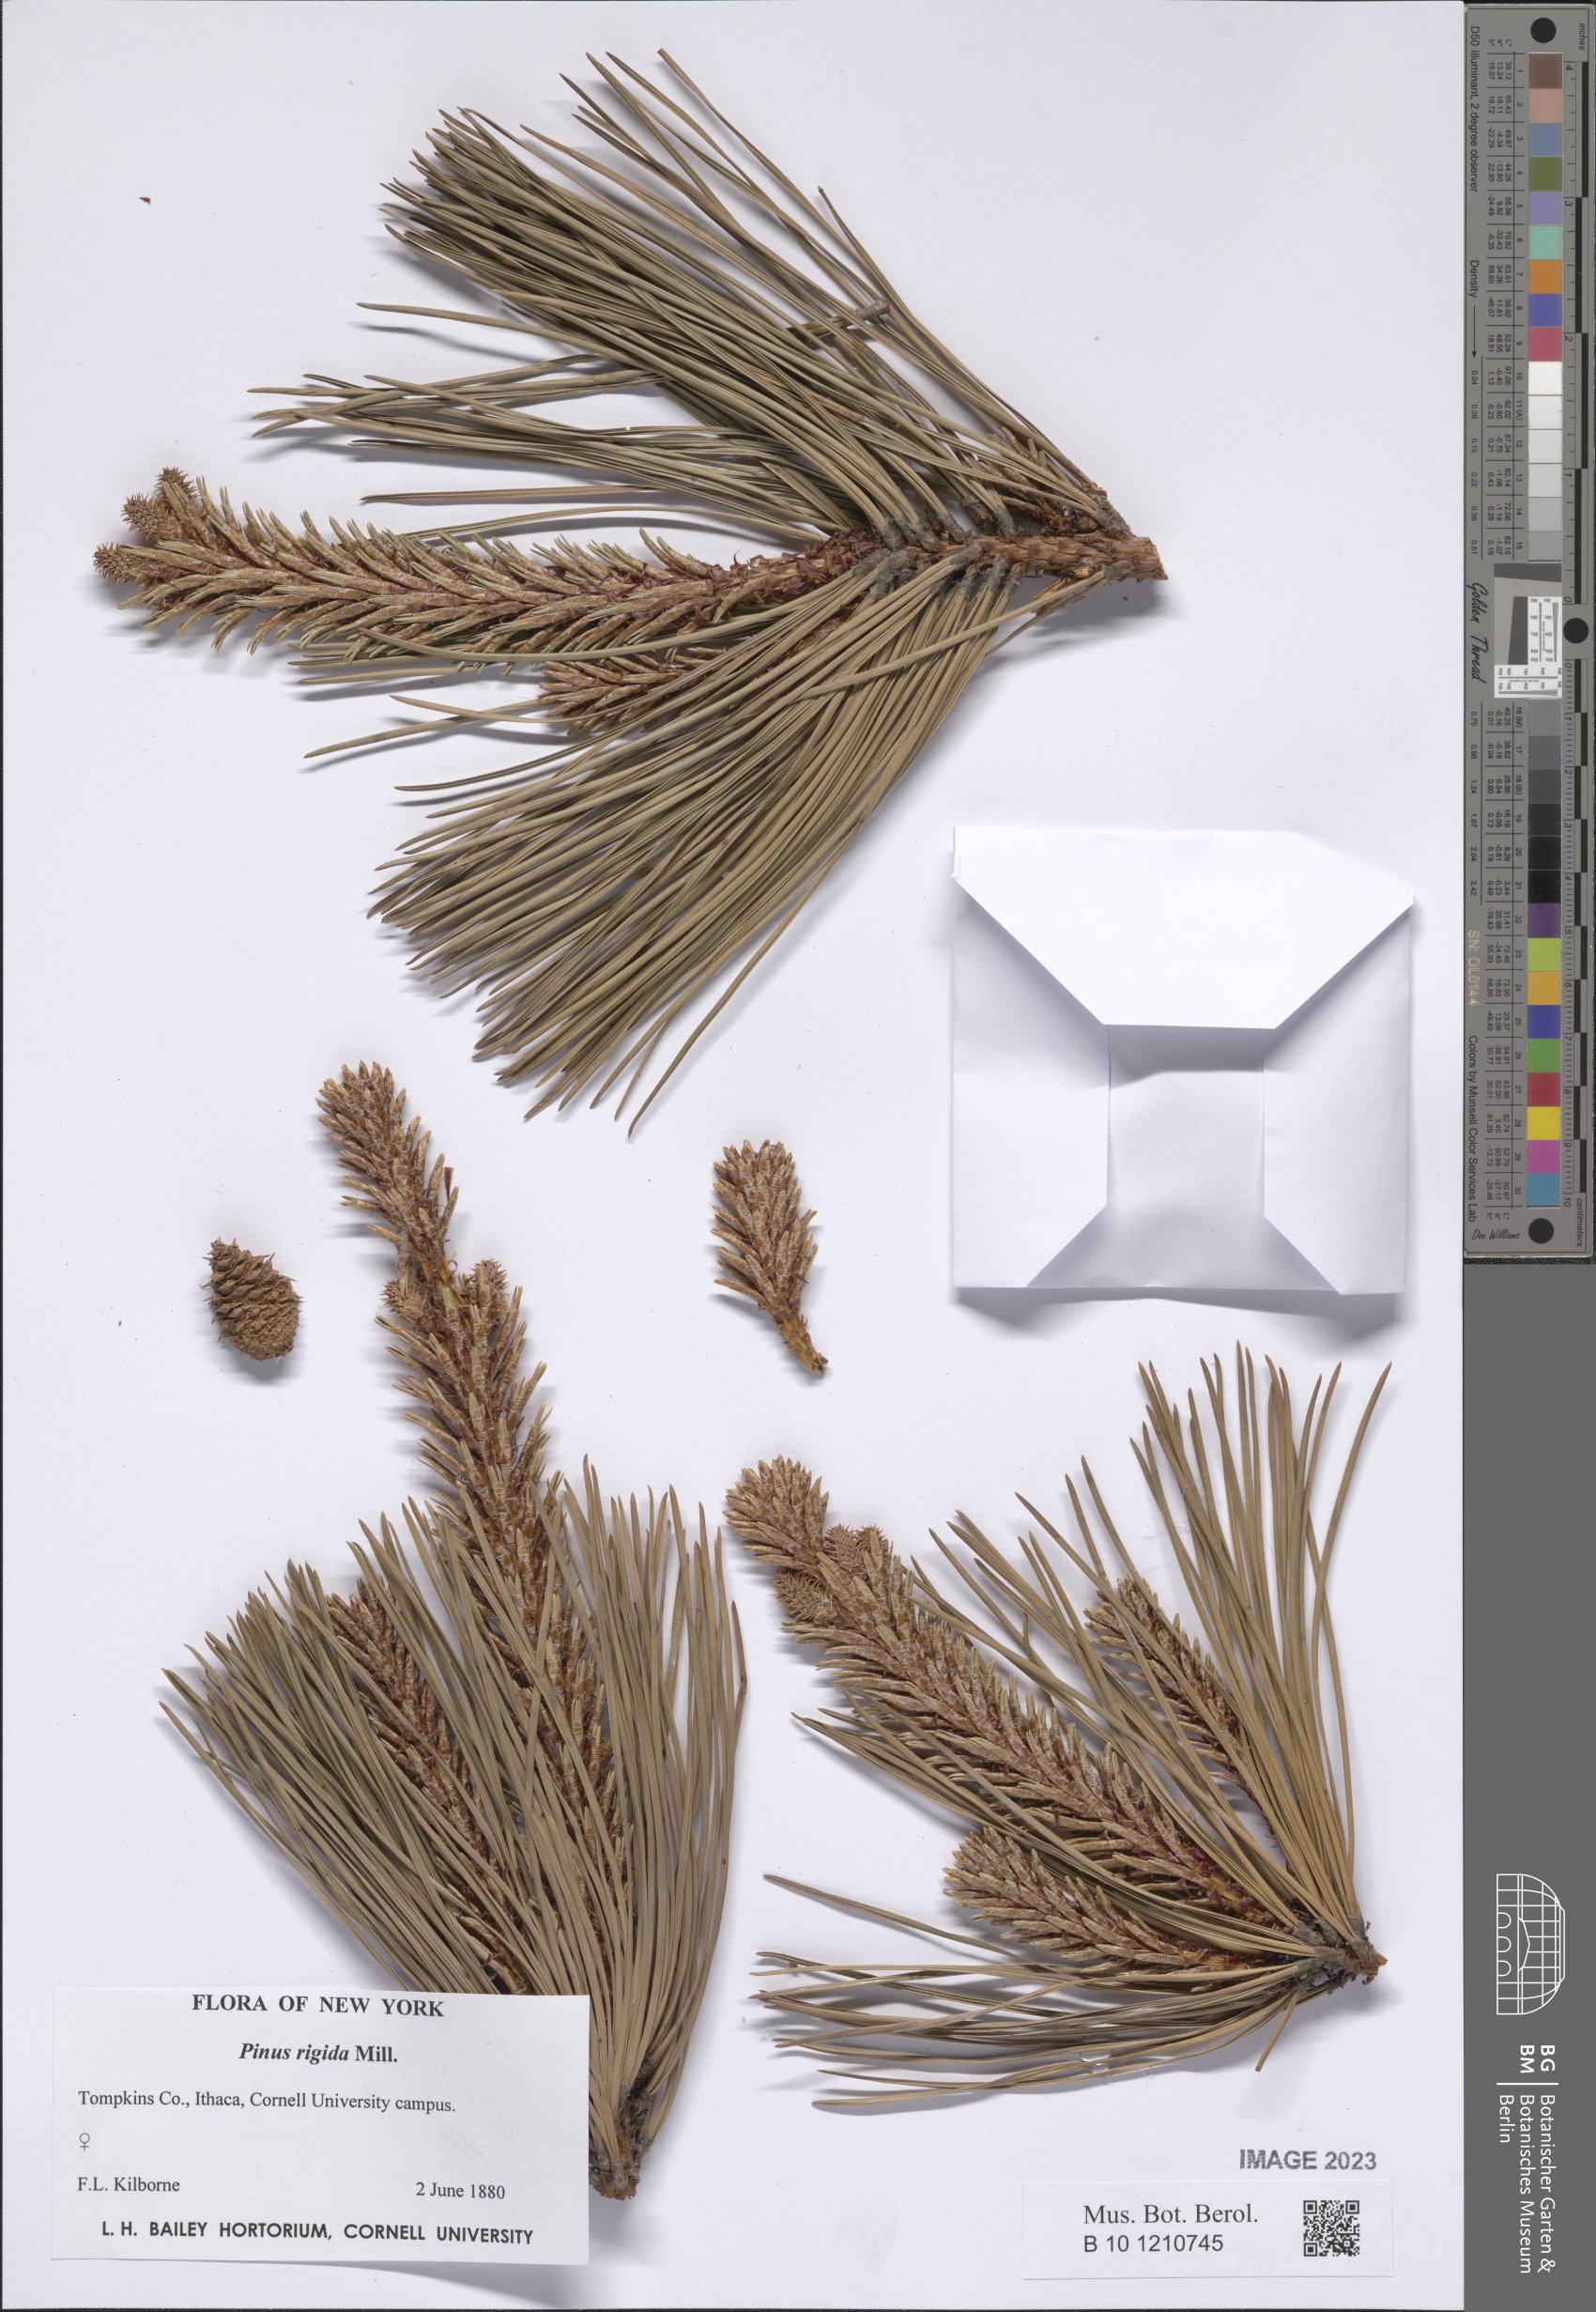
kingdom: Plantae
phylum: Tracheophyta
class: Pinopsida
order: Pinales
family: Pinaceae
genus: Pinus
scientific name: Pinus rigida
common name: Pitch pine
